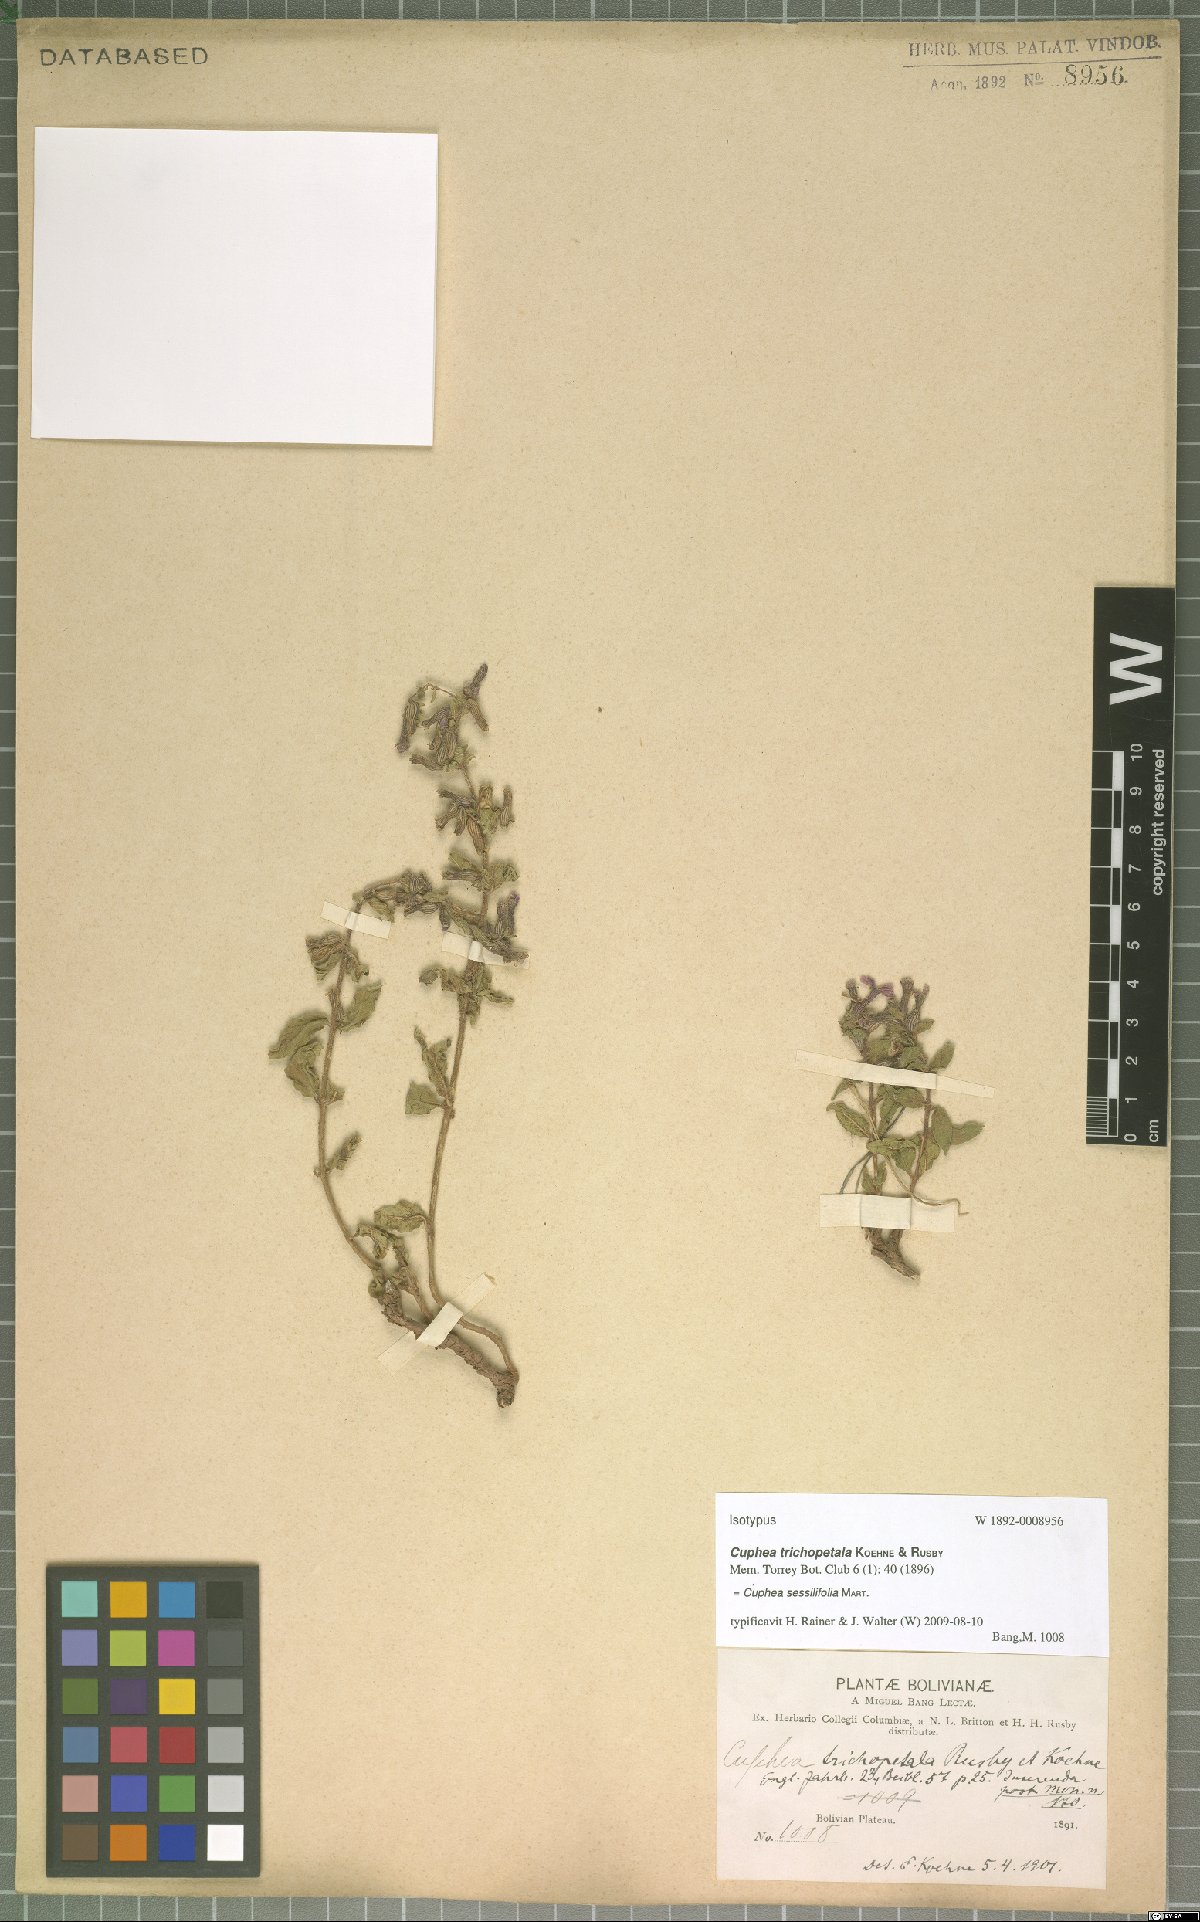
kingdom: Plantae
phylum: Tracheophyta
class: Magnoliopsida
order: Myrtales
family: Lythraceae
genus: Cuphea
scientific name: Cuphea sessilifolia
